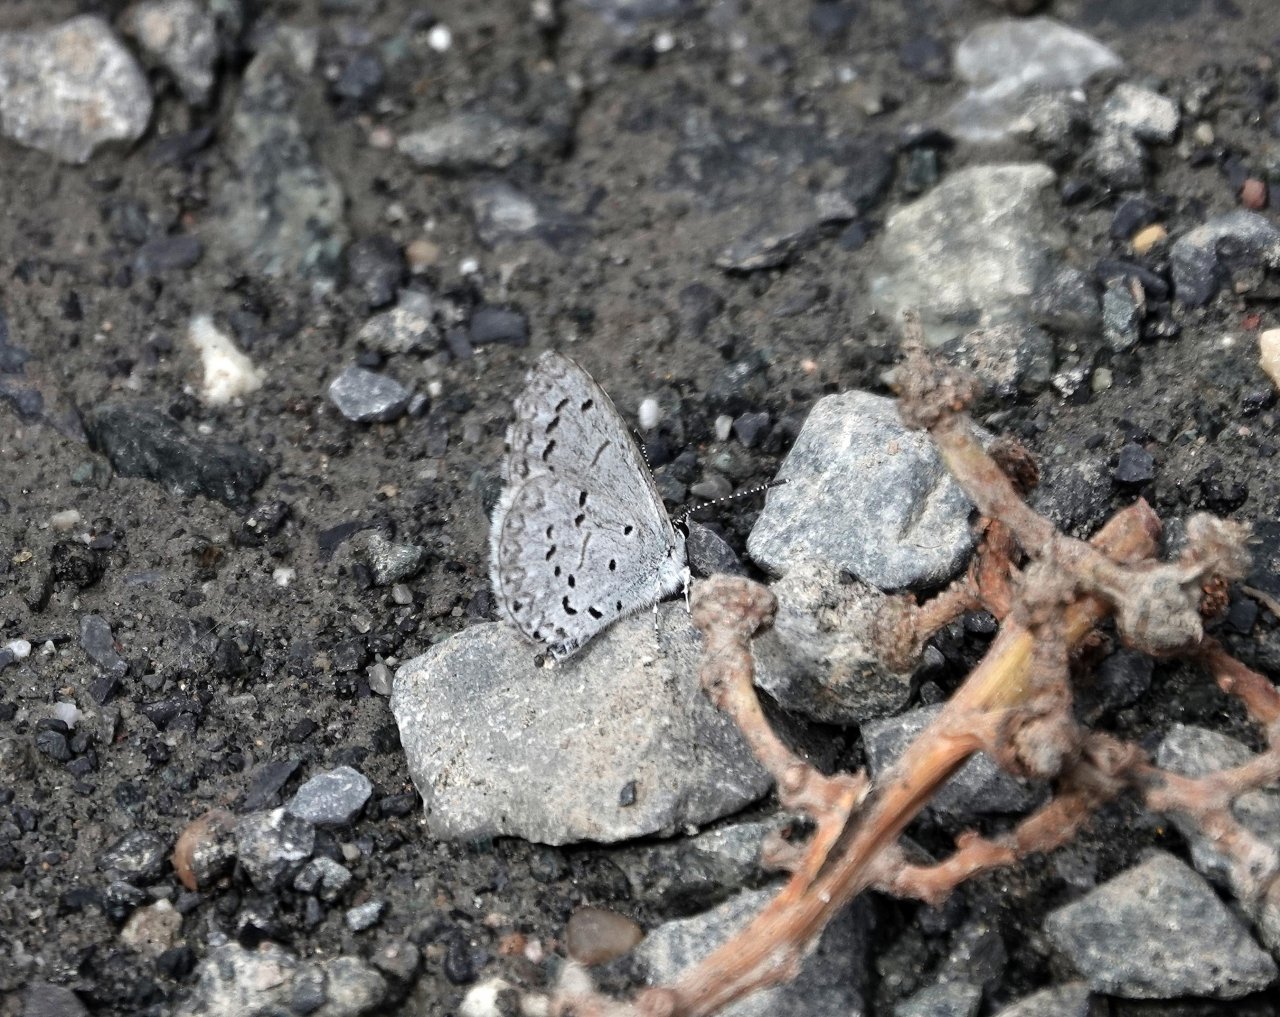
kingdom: Animalia
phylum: Arthropoda
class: Insecta
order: Lepidoptera
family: Lycaenidae
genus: Cyaniris
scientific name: Cyaniris neglecta
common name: Summer Azure
